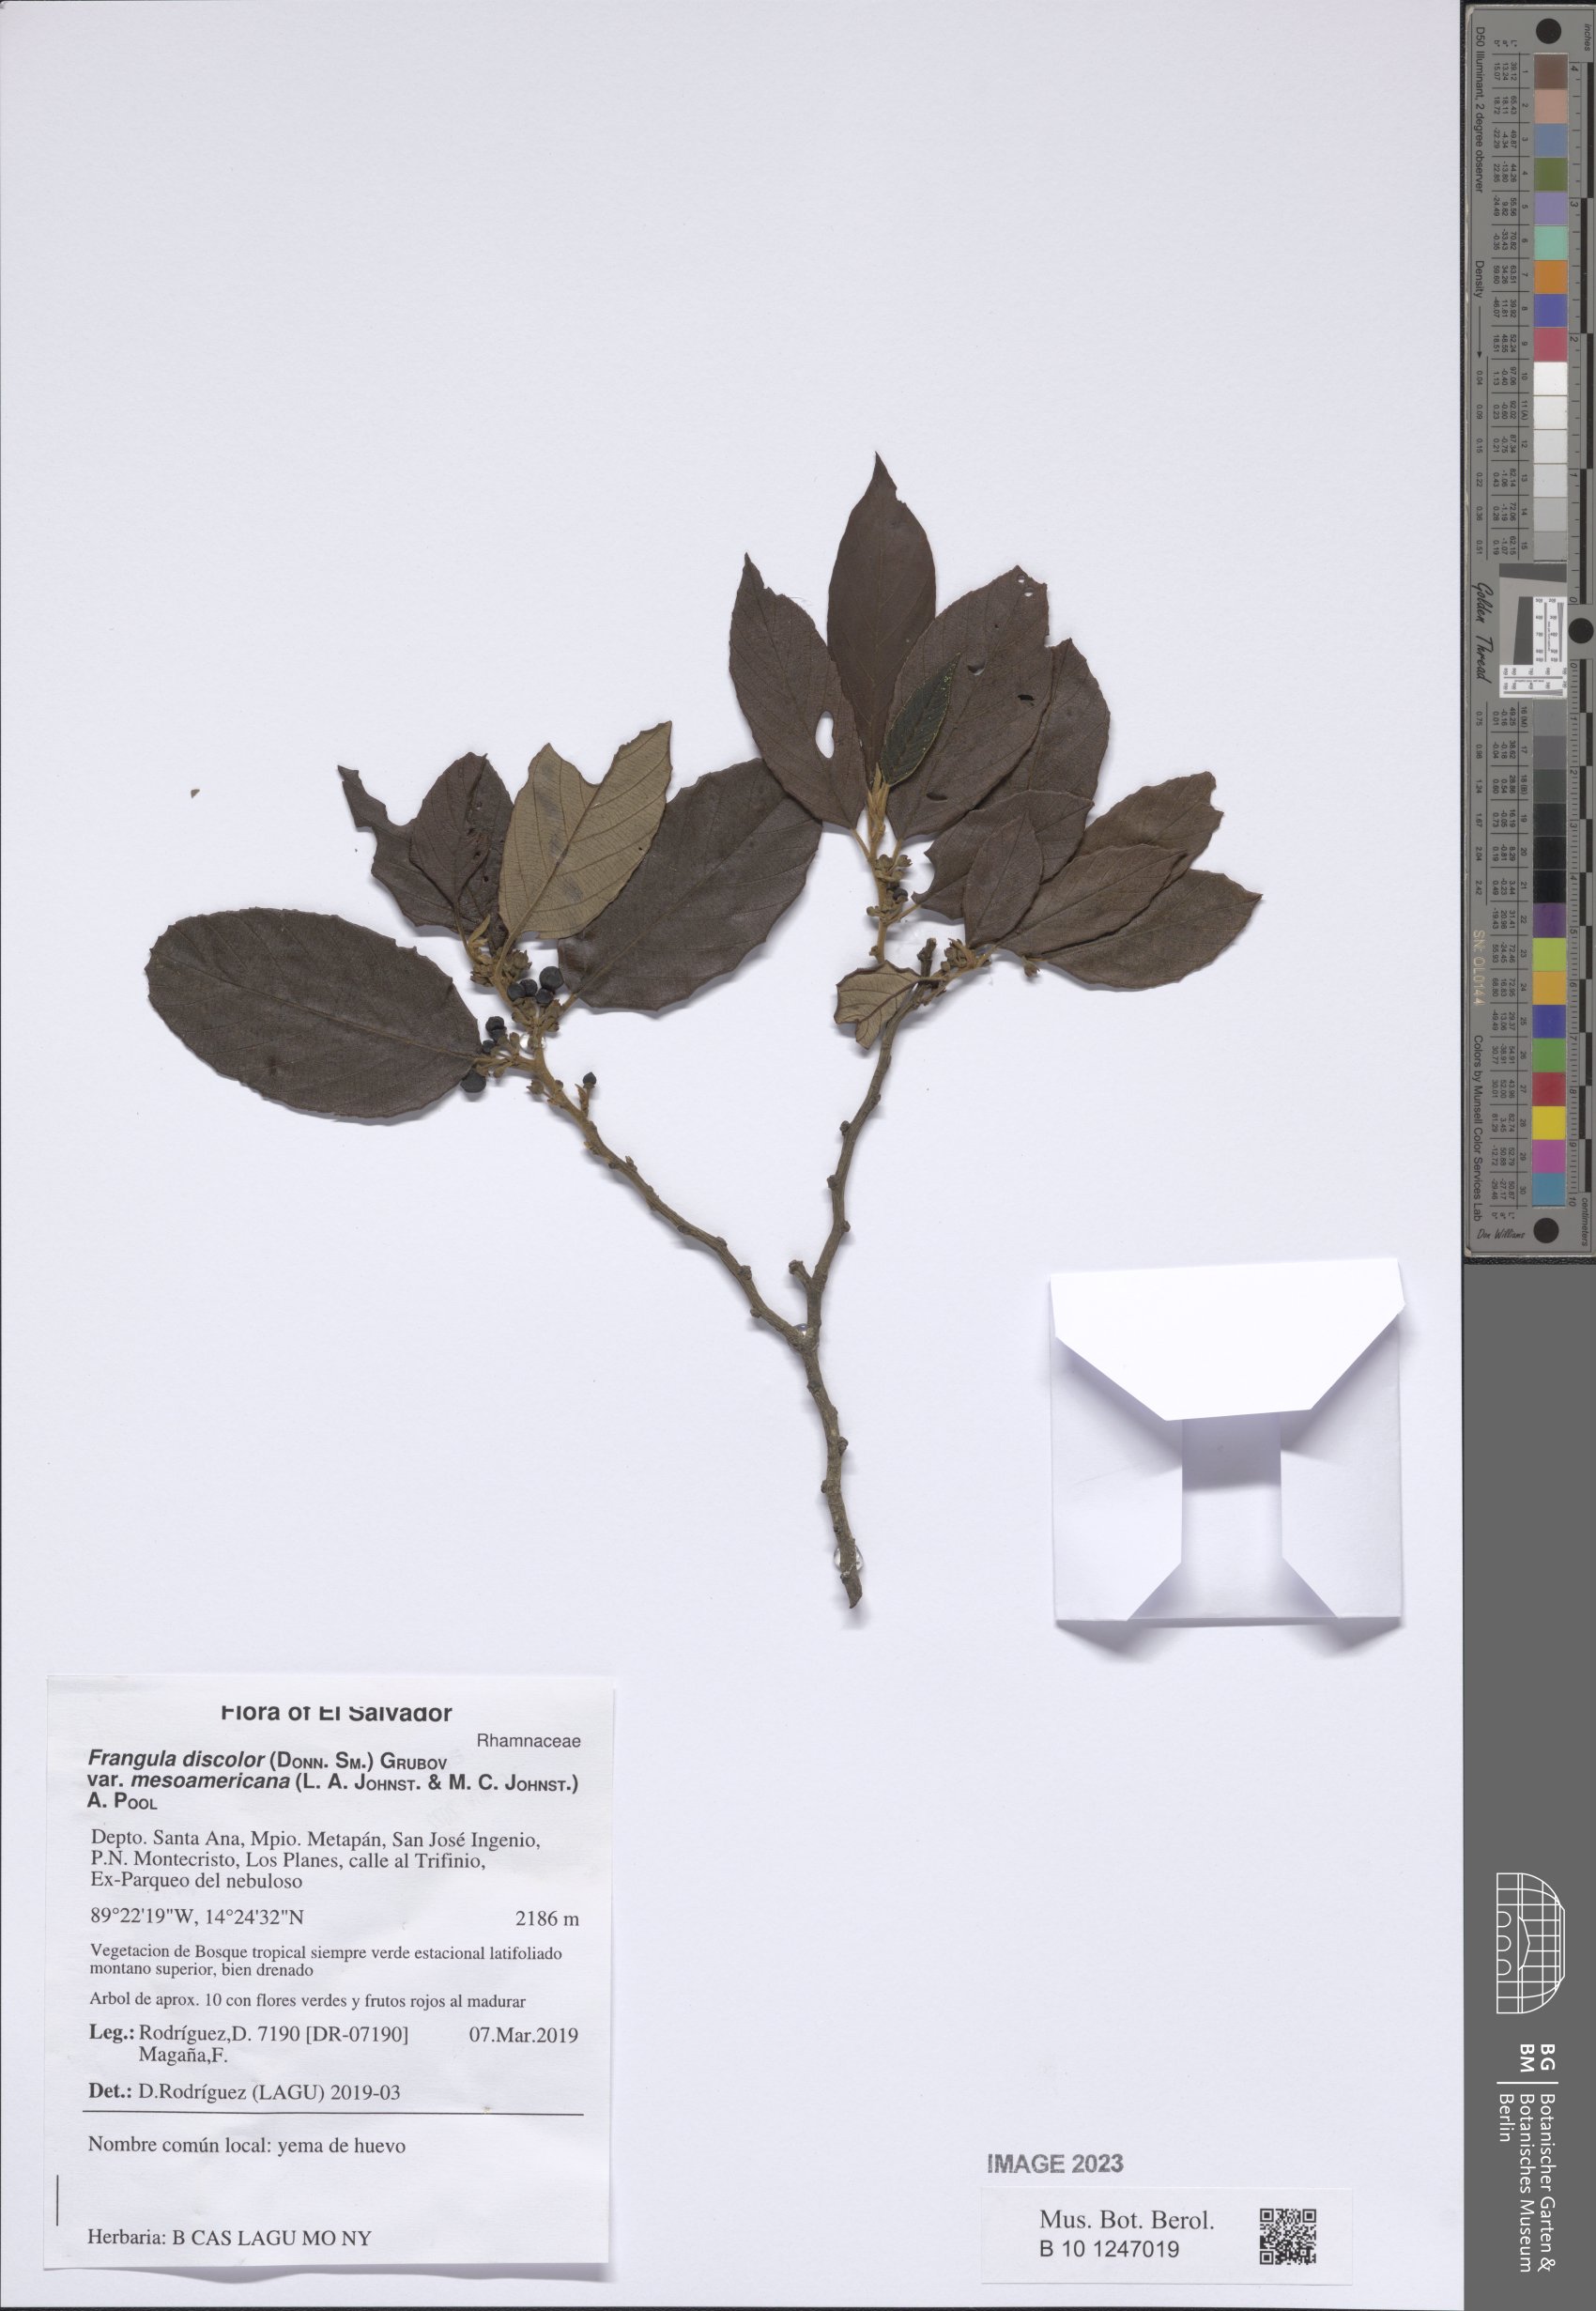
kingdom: Plantae
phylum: Tracheophyta
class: Magnoliopsida
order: Rosales
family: Rhamnaceae
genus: Frangula
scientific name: Frangula discolor
